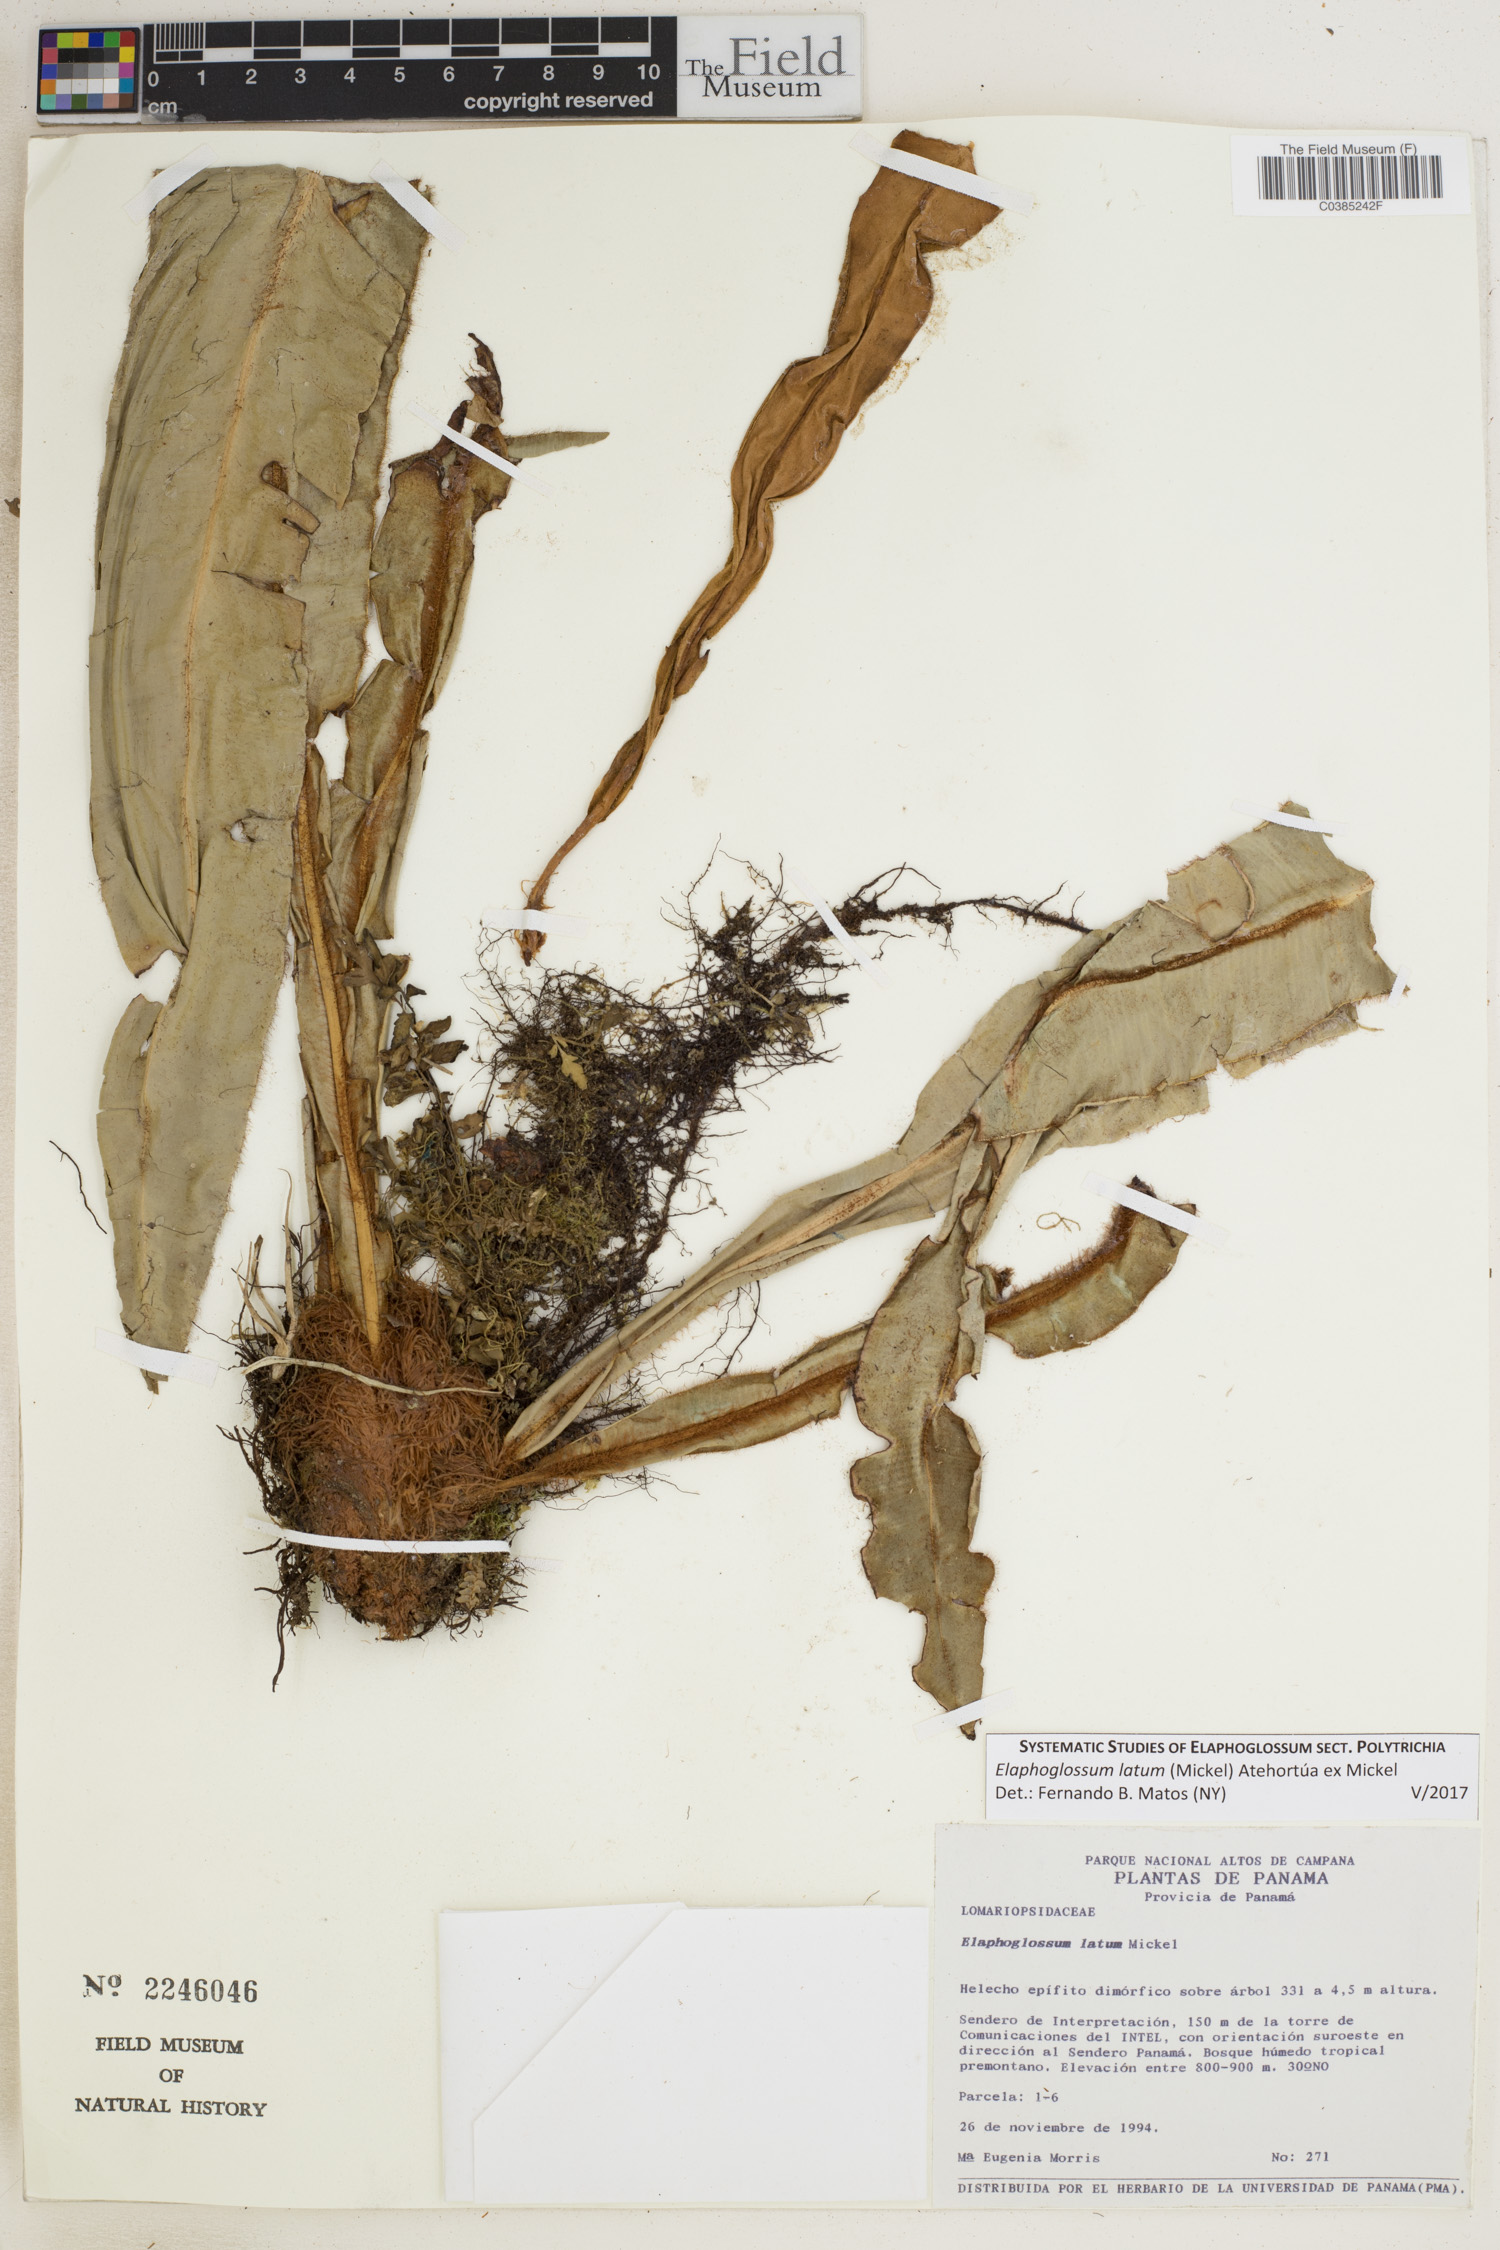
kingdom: Plantae
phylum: Tracheophyta
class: Polypodiopsida
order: Polypodiales
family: Dryopteridaceae
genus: Elaphoglossum
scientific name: Elaphoglossum latum
